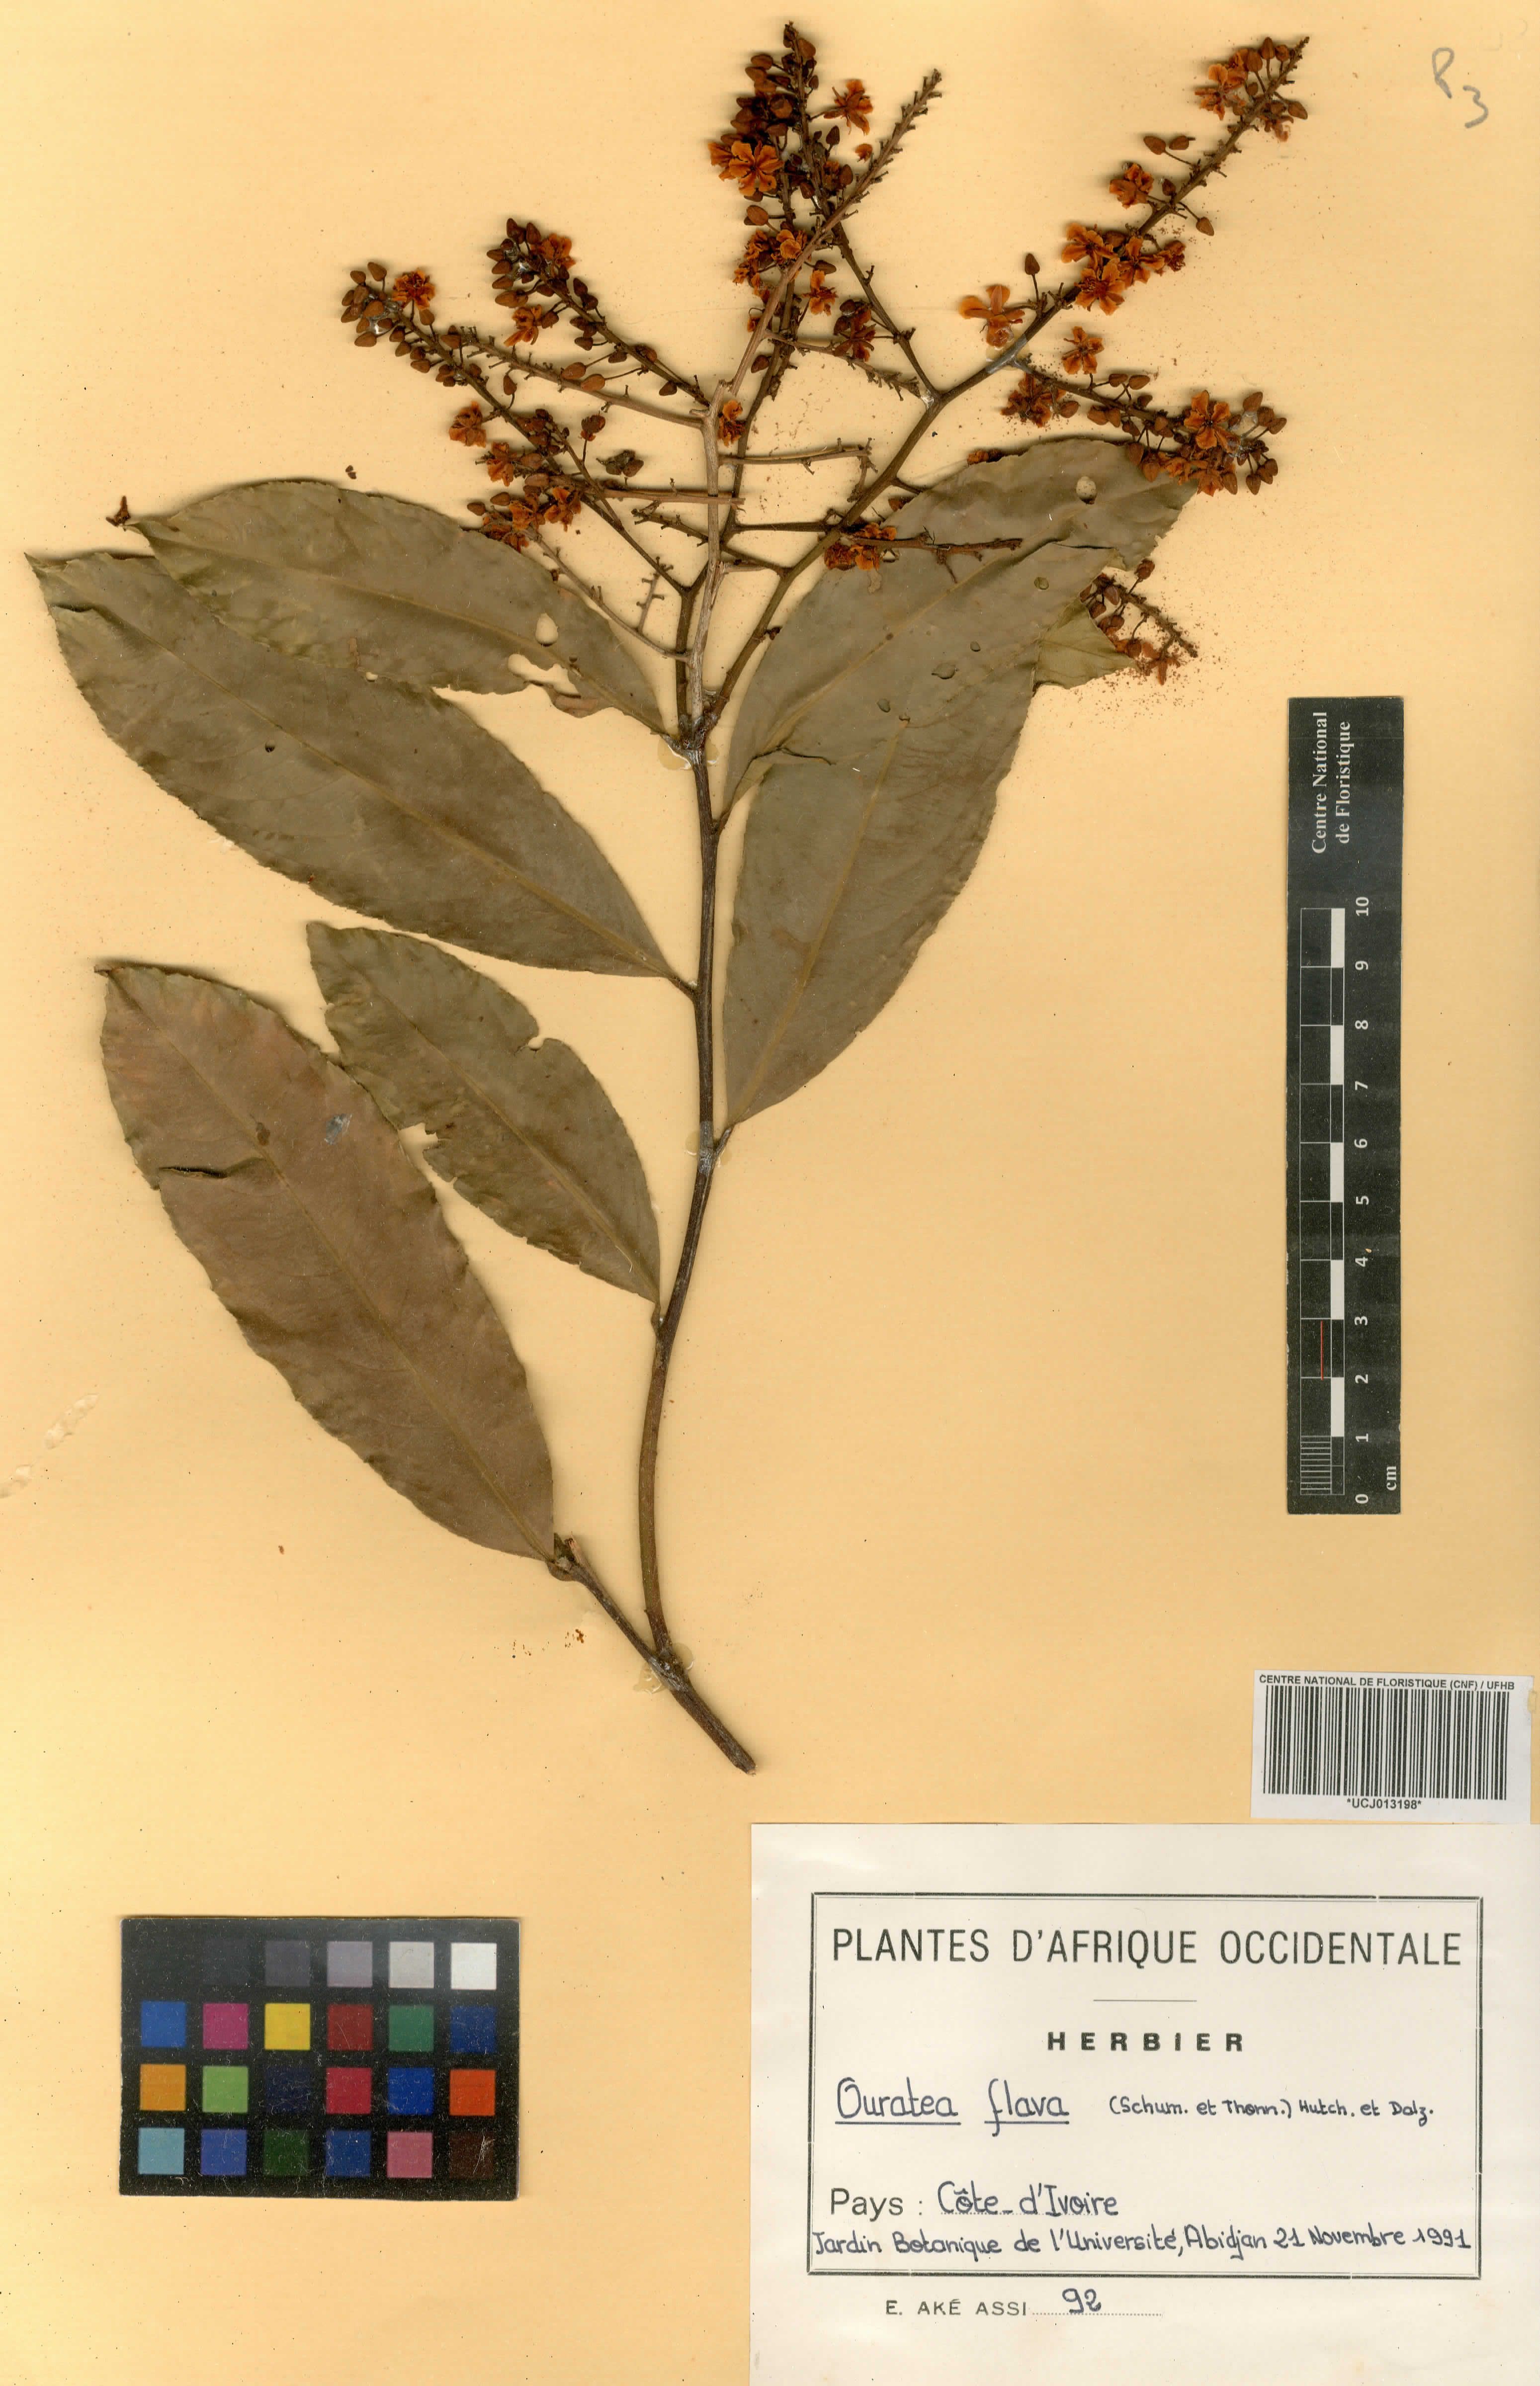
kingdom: Plantae
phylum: Tracheophyta
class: Magnoliopsida
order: Malpighiales
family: Ochnaceae
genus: Campylospermum
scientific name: Campylospermum flavum
